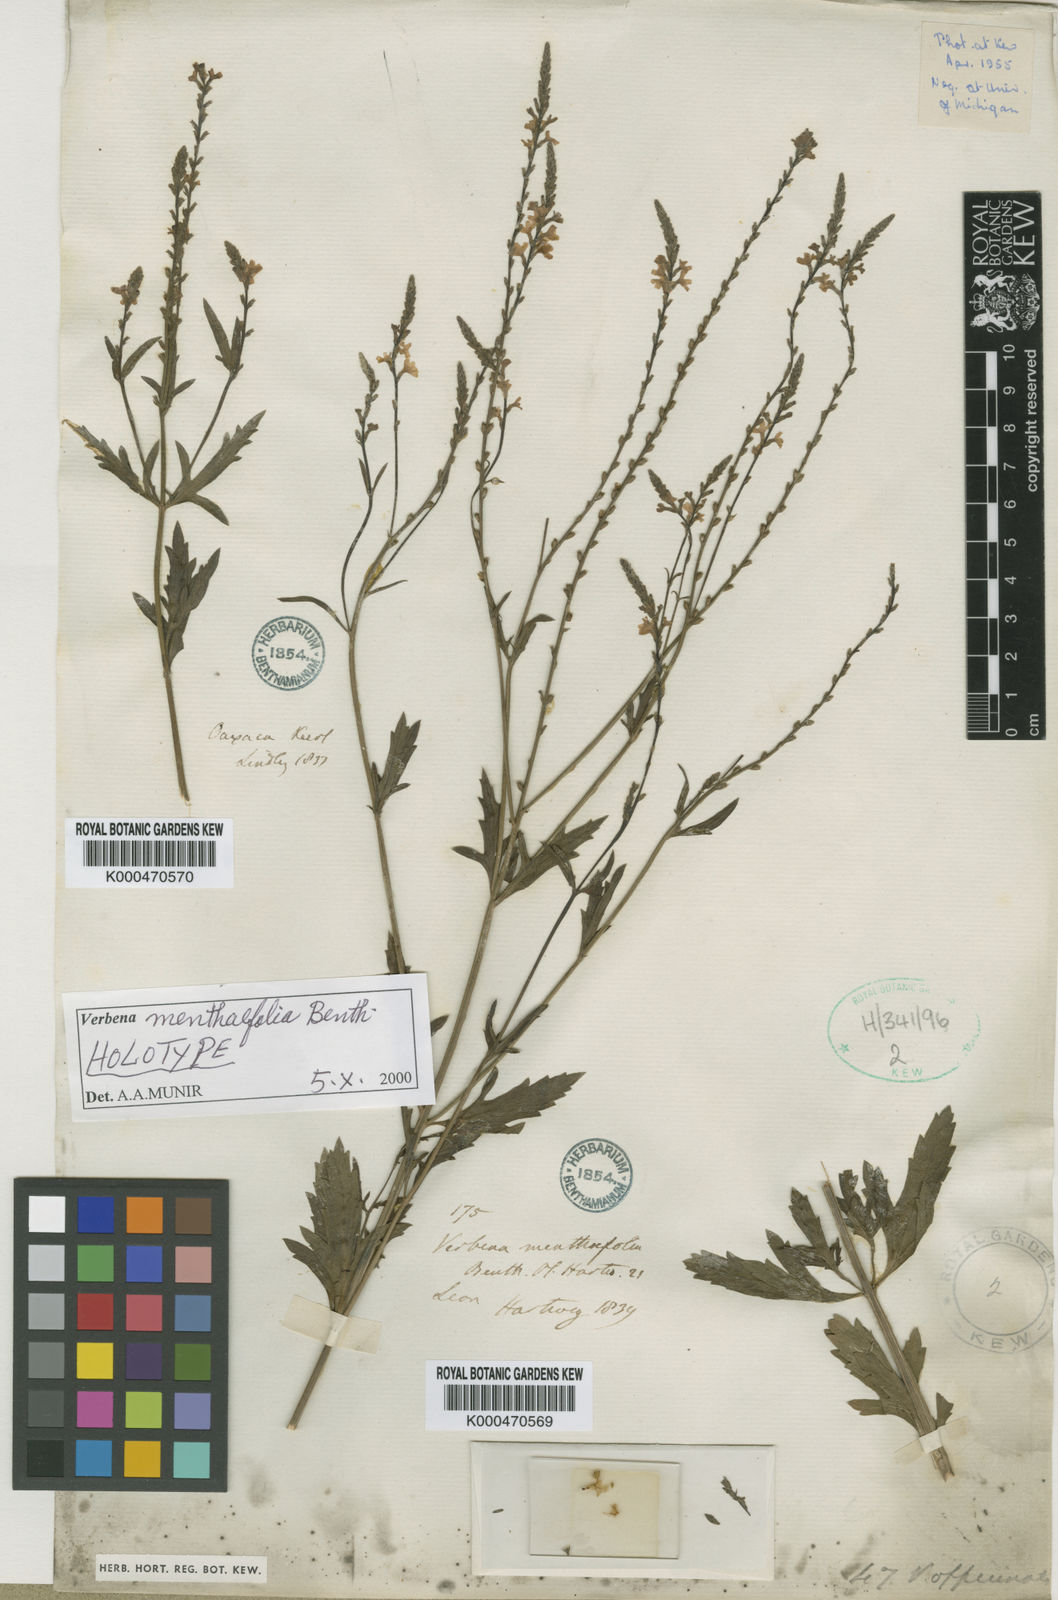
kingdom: Plantae
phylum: Tracheophyta
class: Magnoliopsida
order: Lamiales
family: Verbenaceae
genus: Verbena
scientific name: Verbena officinalis
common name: Vervain
